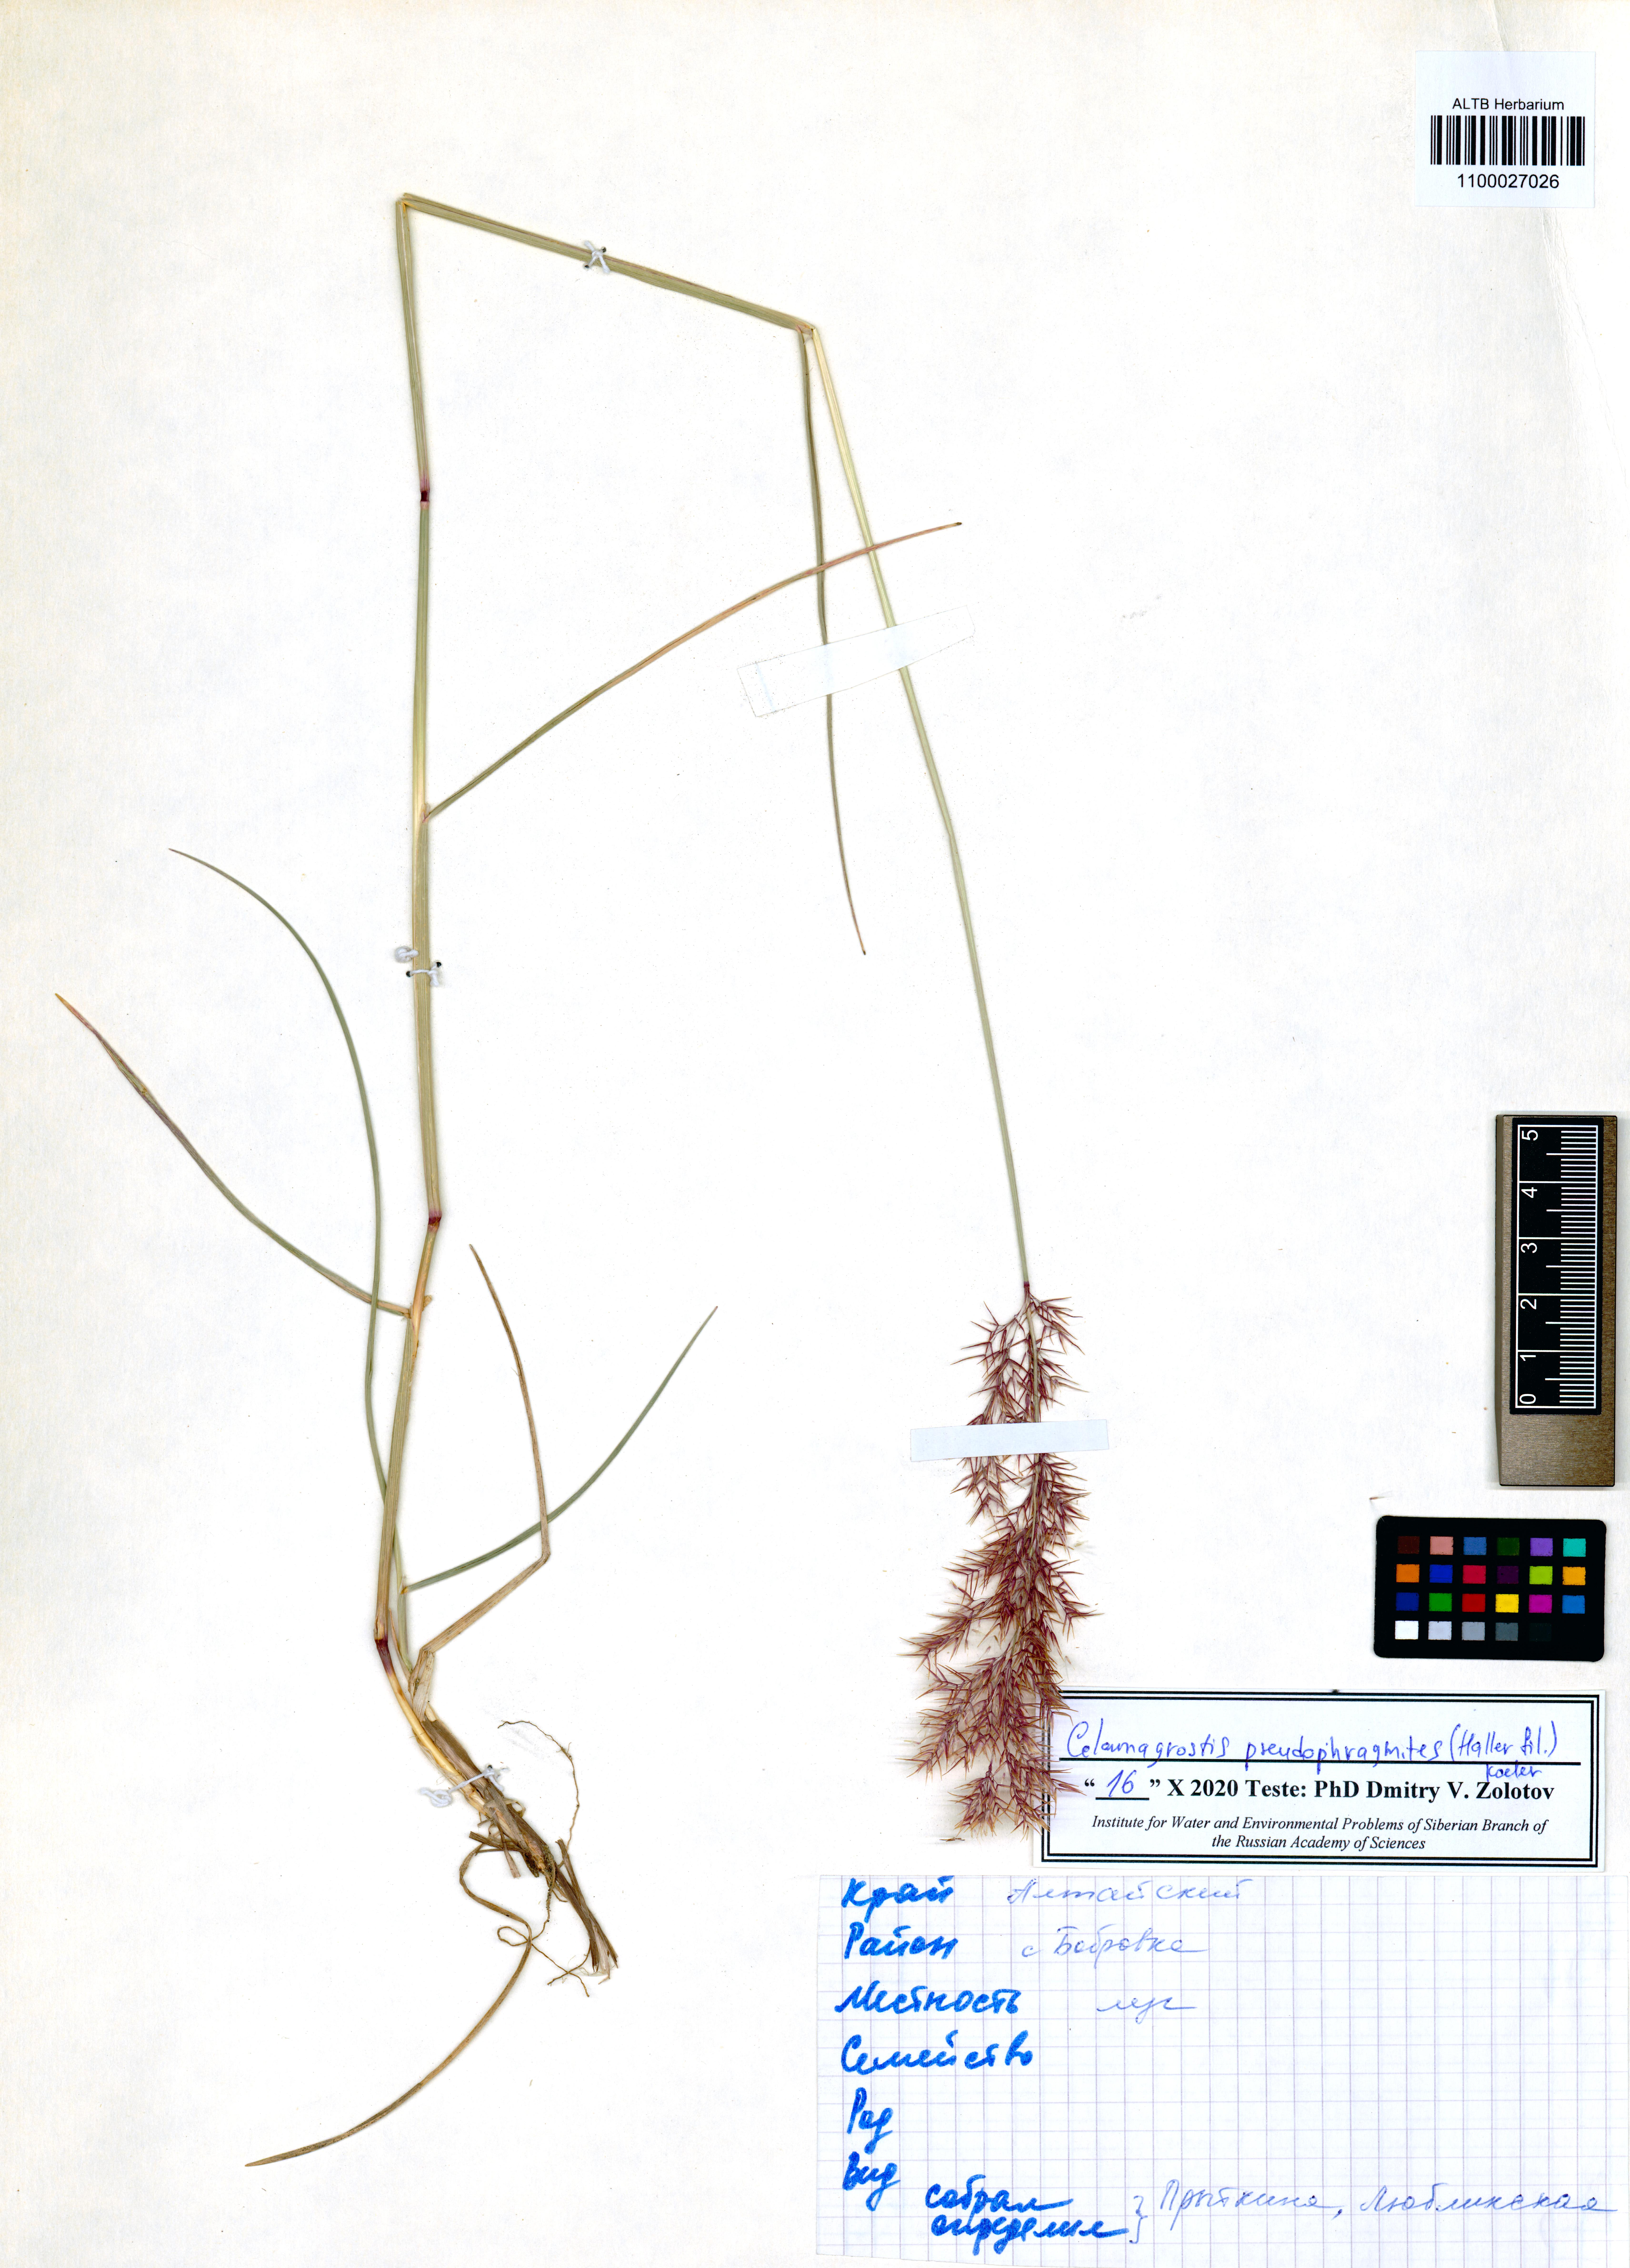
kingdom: Plantae
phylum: Tracheophyta
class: Liliopsida
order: Poales
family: Poaceae
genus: Calamagrostis
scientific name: Calamagrostis pseudophragmites
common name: Coastal small-reed
